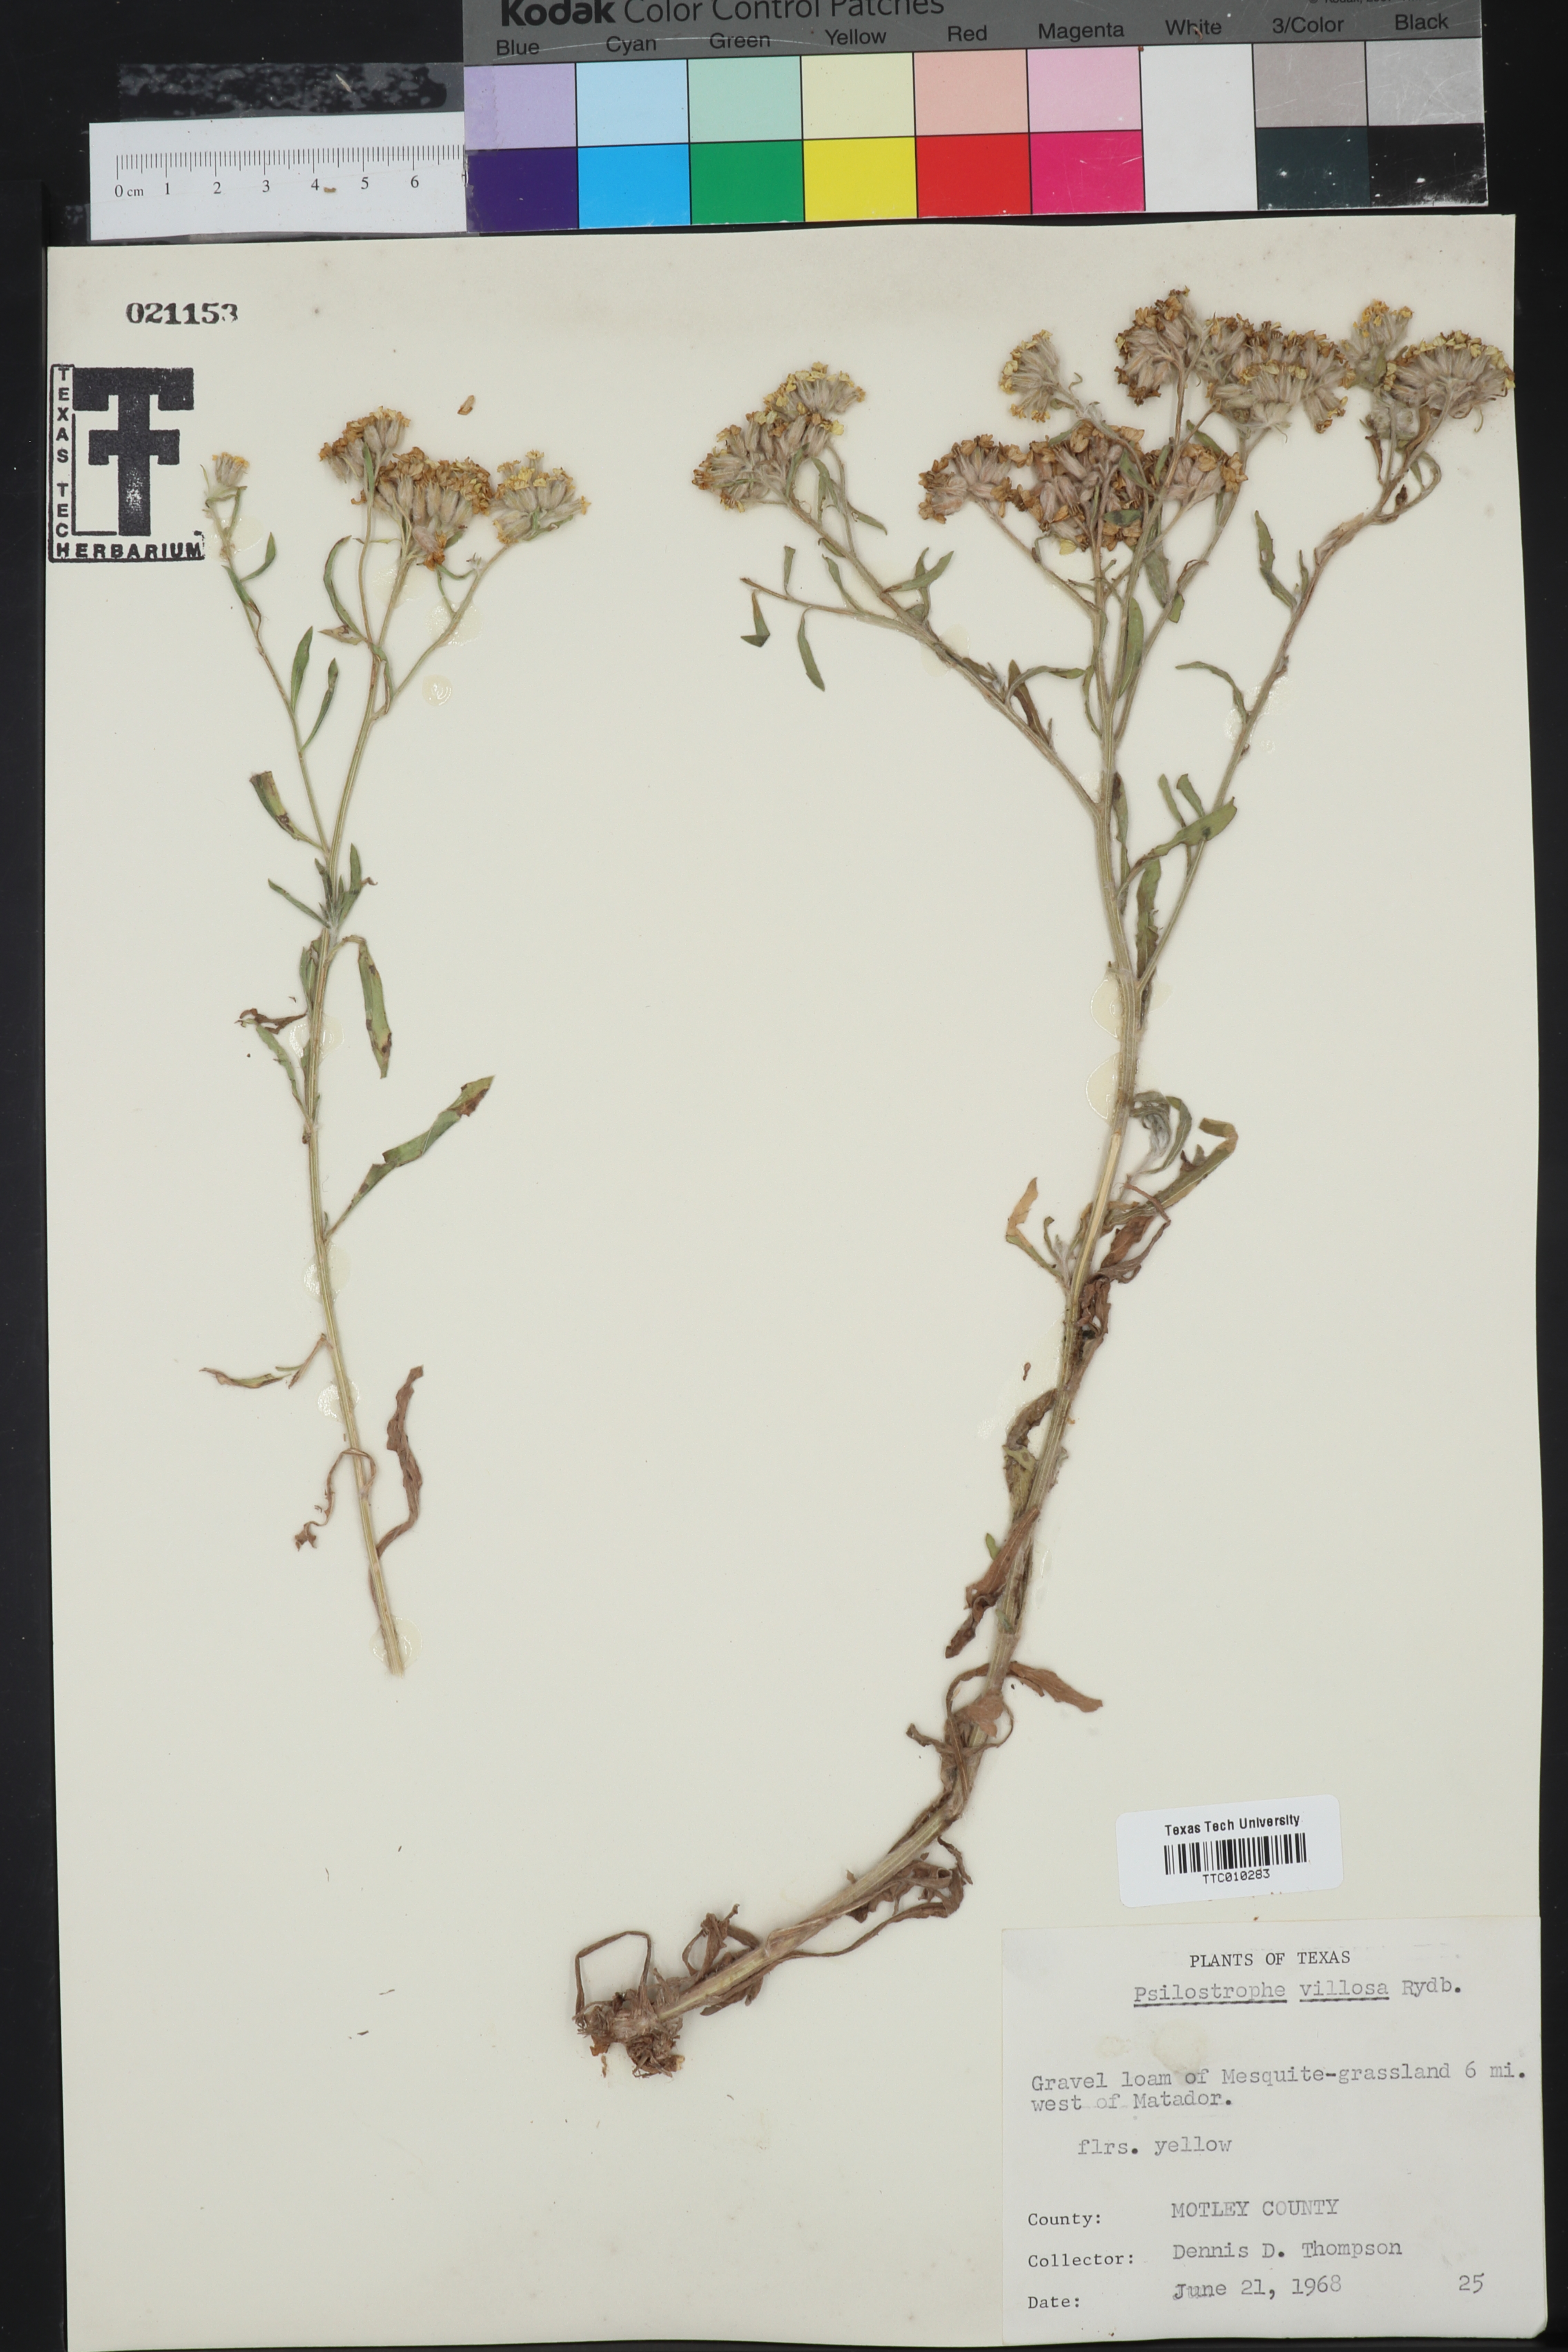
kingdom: Plantae
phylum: Tracheophyta
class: Magnoliopsida
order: Asterales
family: Asteraceae
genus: Psilostrophe
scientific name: Psilostrophe villosa
